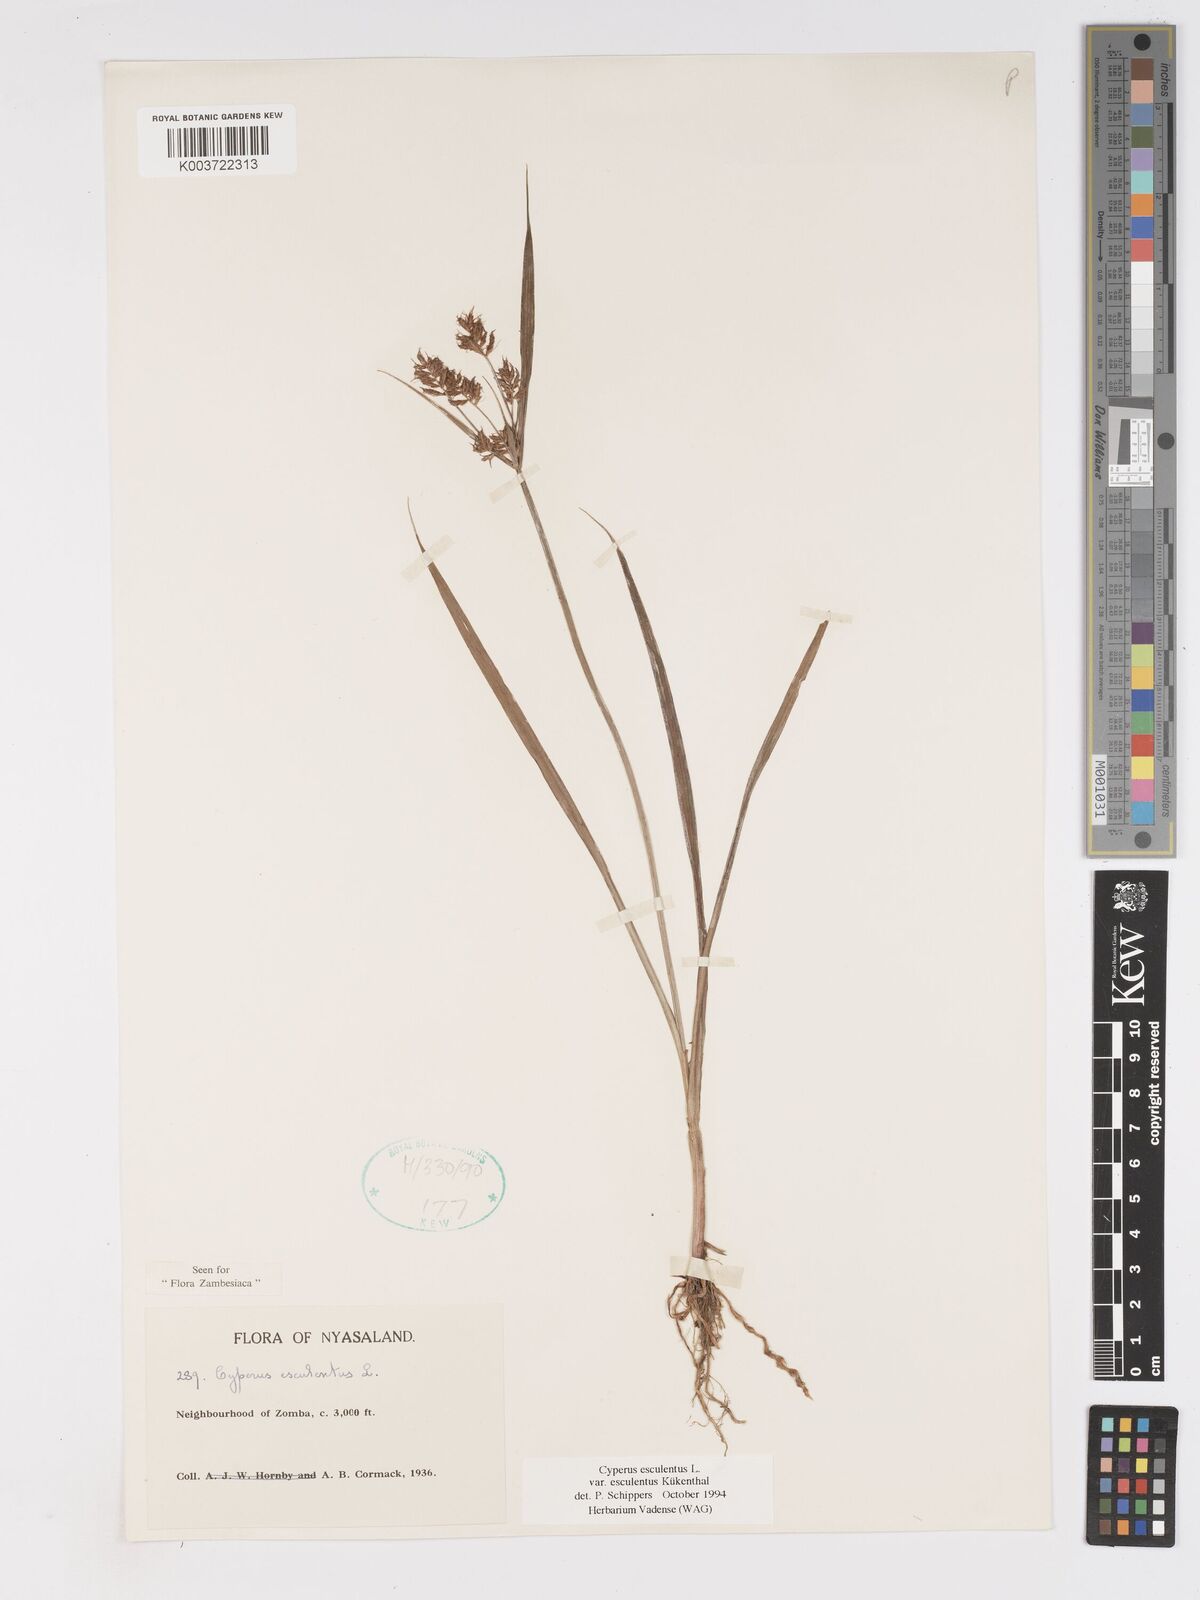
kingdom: Plantae
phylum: Tracheophyta
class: Liliopsida
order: Poales
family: Cyperaceae
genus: Cyperus
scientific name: Cyperus esculentus
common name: Yellow nutsedge
